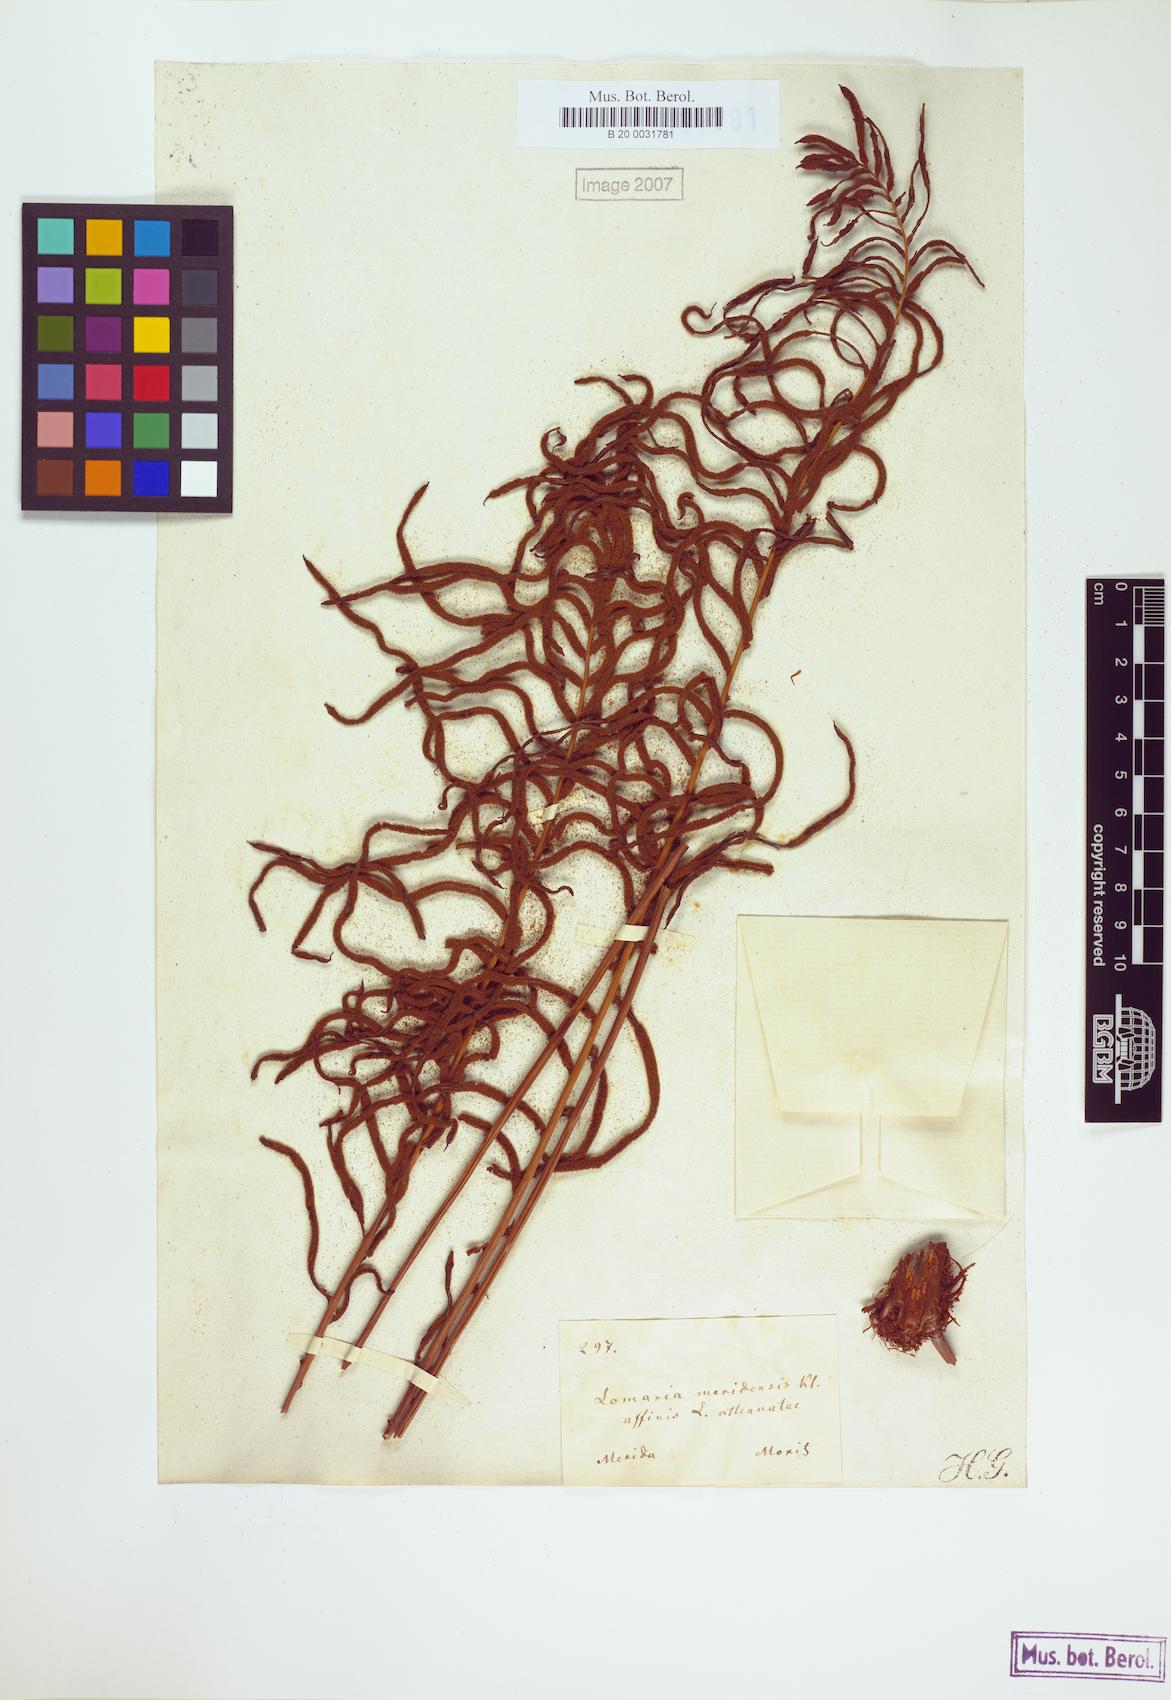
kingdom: Plantae
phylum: Tracheophyta
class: Polypodiopsida
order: Polypodiales
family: Blechnaceae
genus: Lomaridium
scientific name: Lomaridium ensiforme
